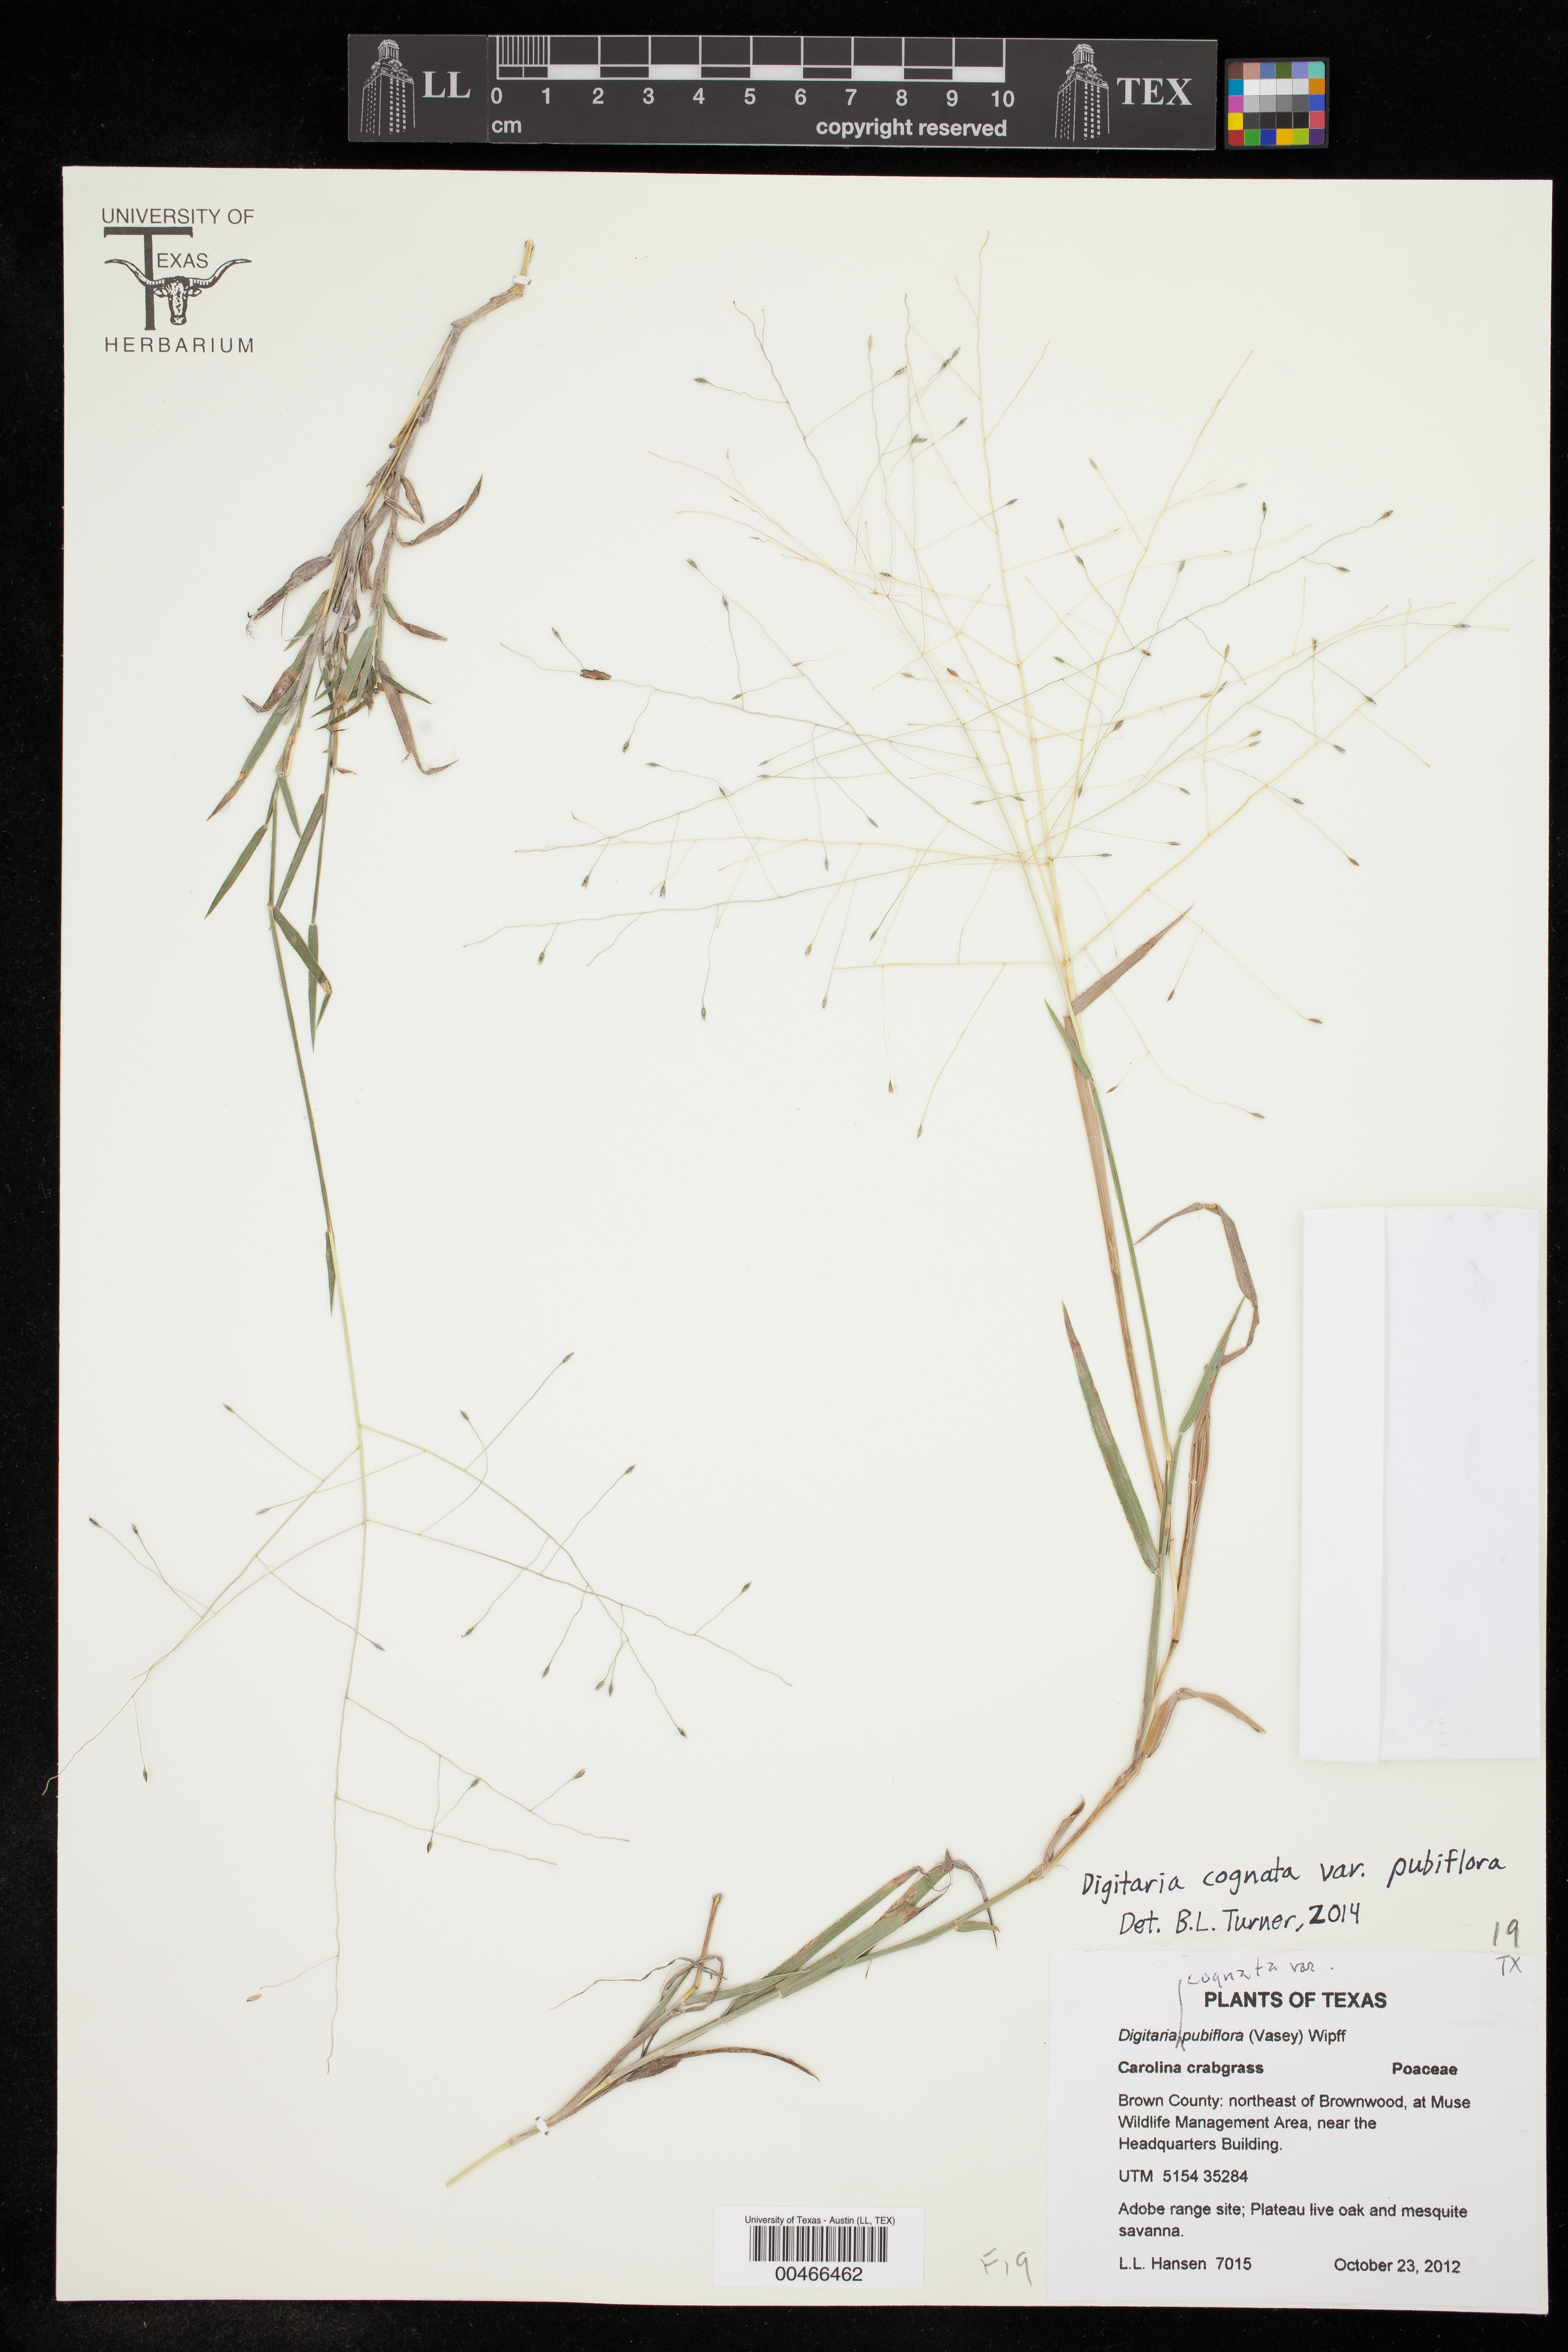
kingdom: Plantae
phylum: Tracheophyta
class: Liliopsida
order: Poales
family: Poaceae
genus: Digitaria
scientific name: Digitaria cognata
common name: Fall witchgrass
